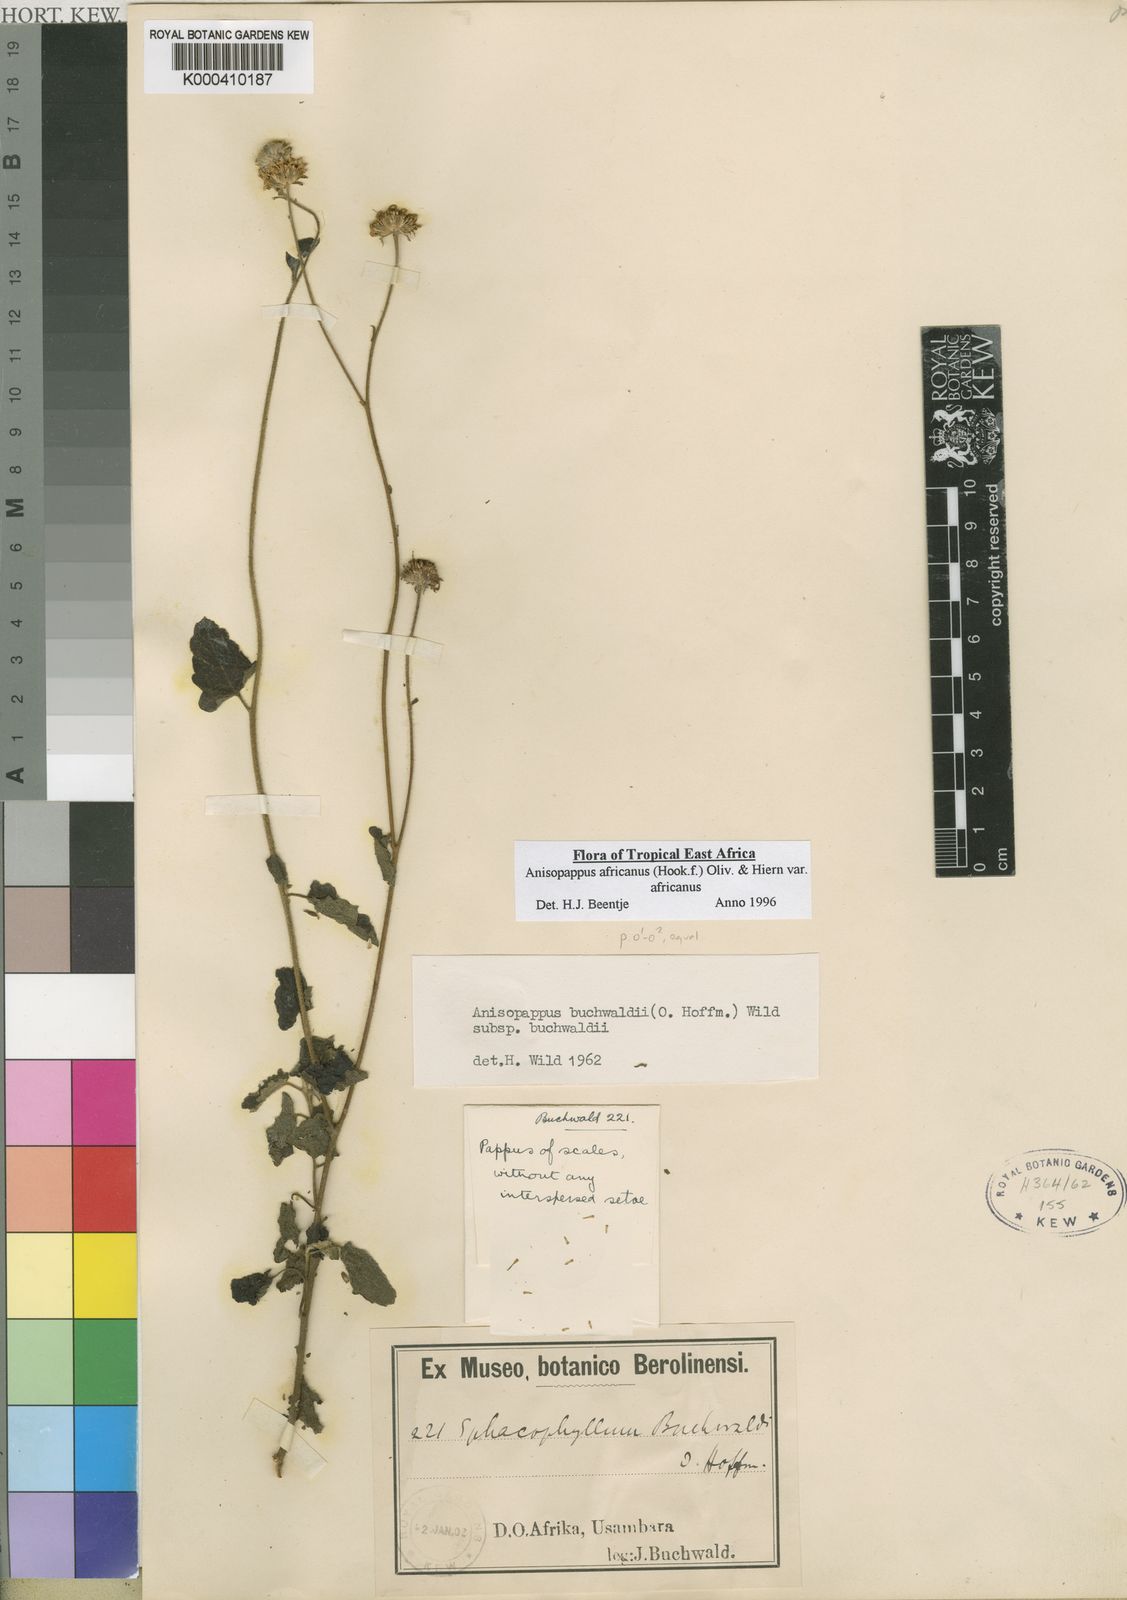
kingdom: Plantae
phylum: Tracheophyta
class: Magnoliopsida
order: Asterales
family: Asteraceae
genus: Anisopappus
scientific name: Anisopappus africanus
